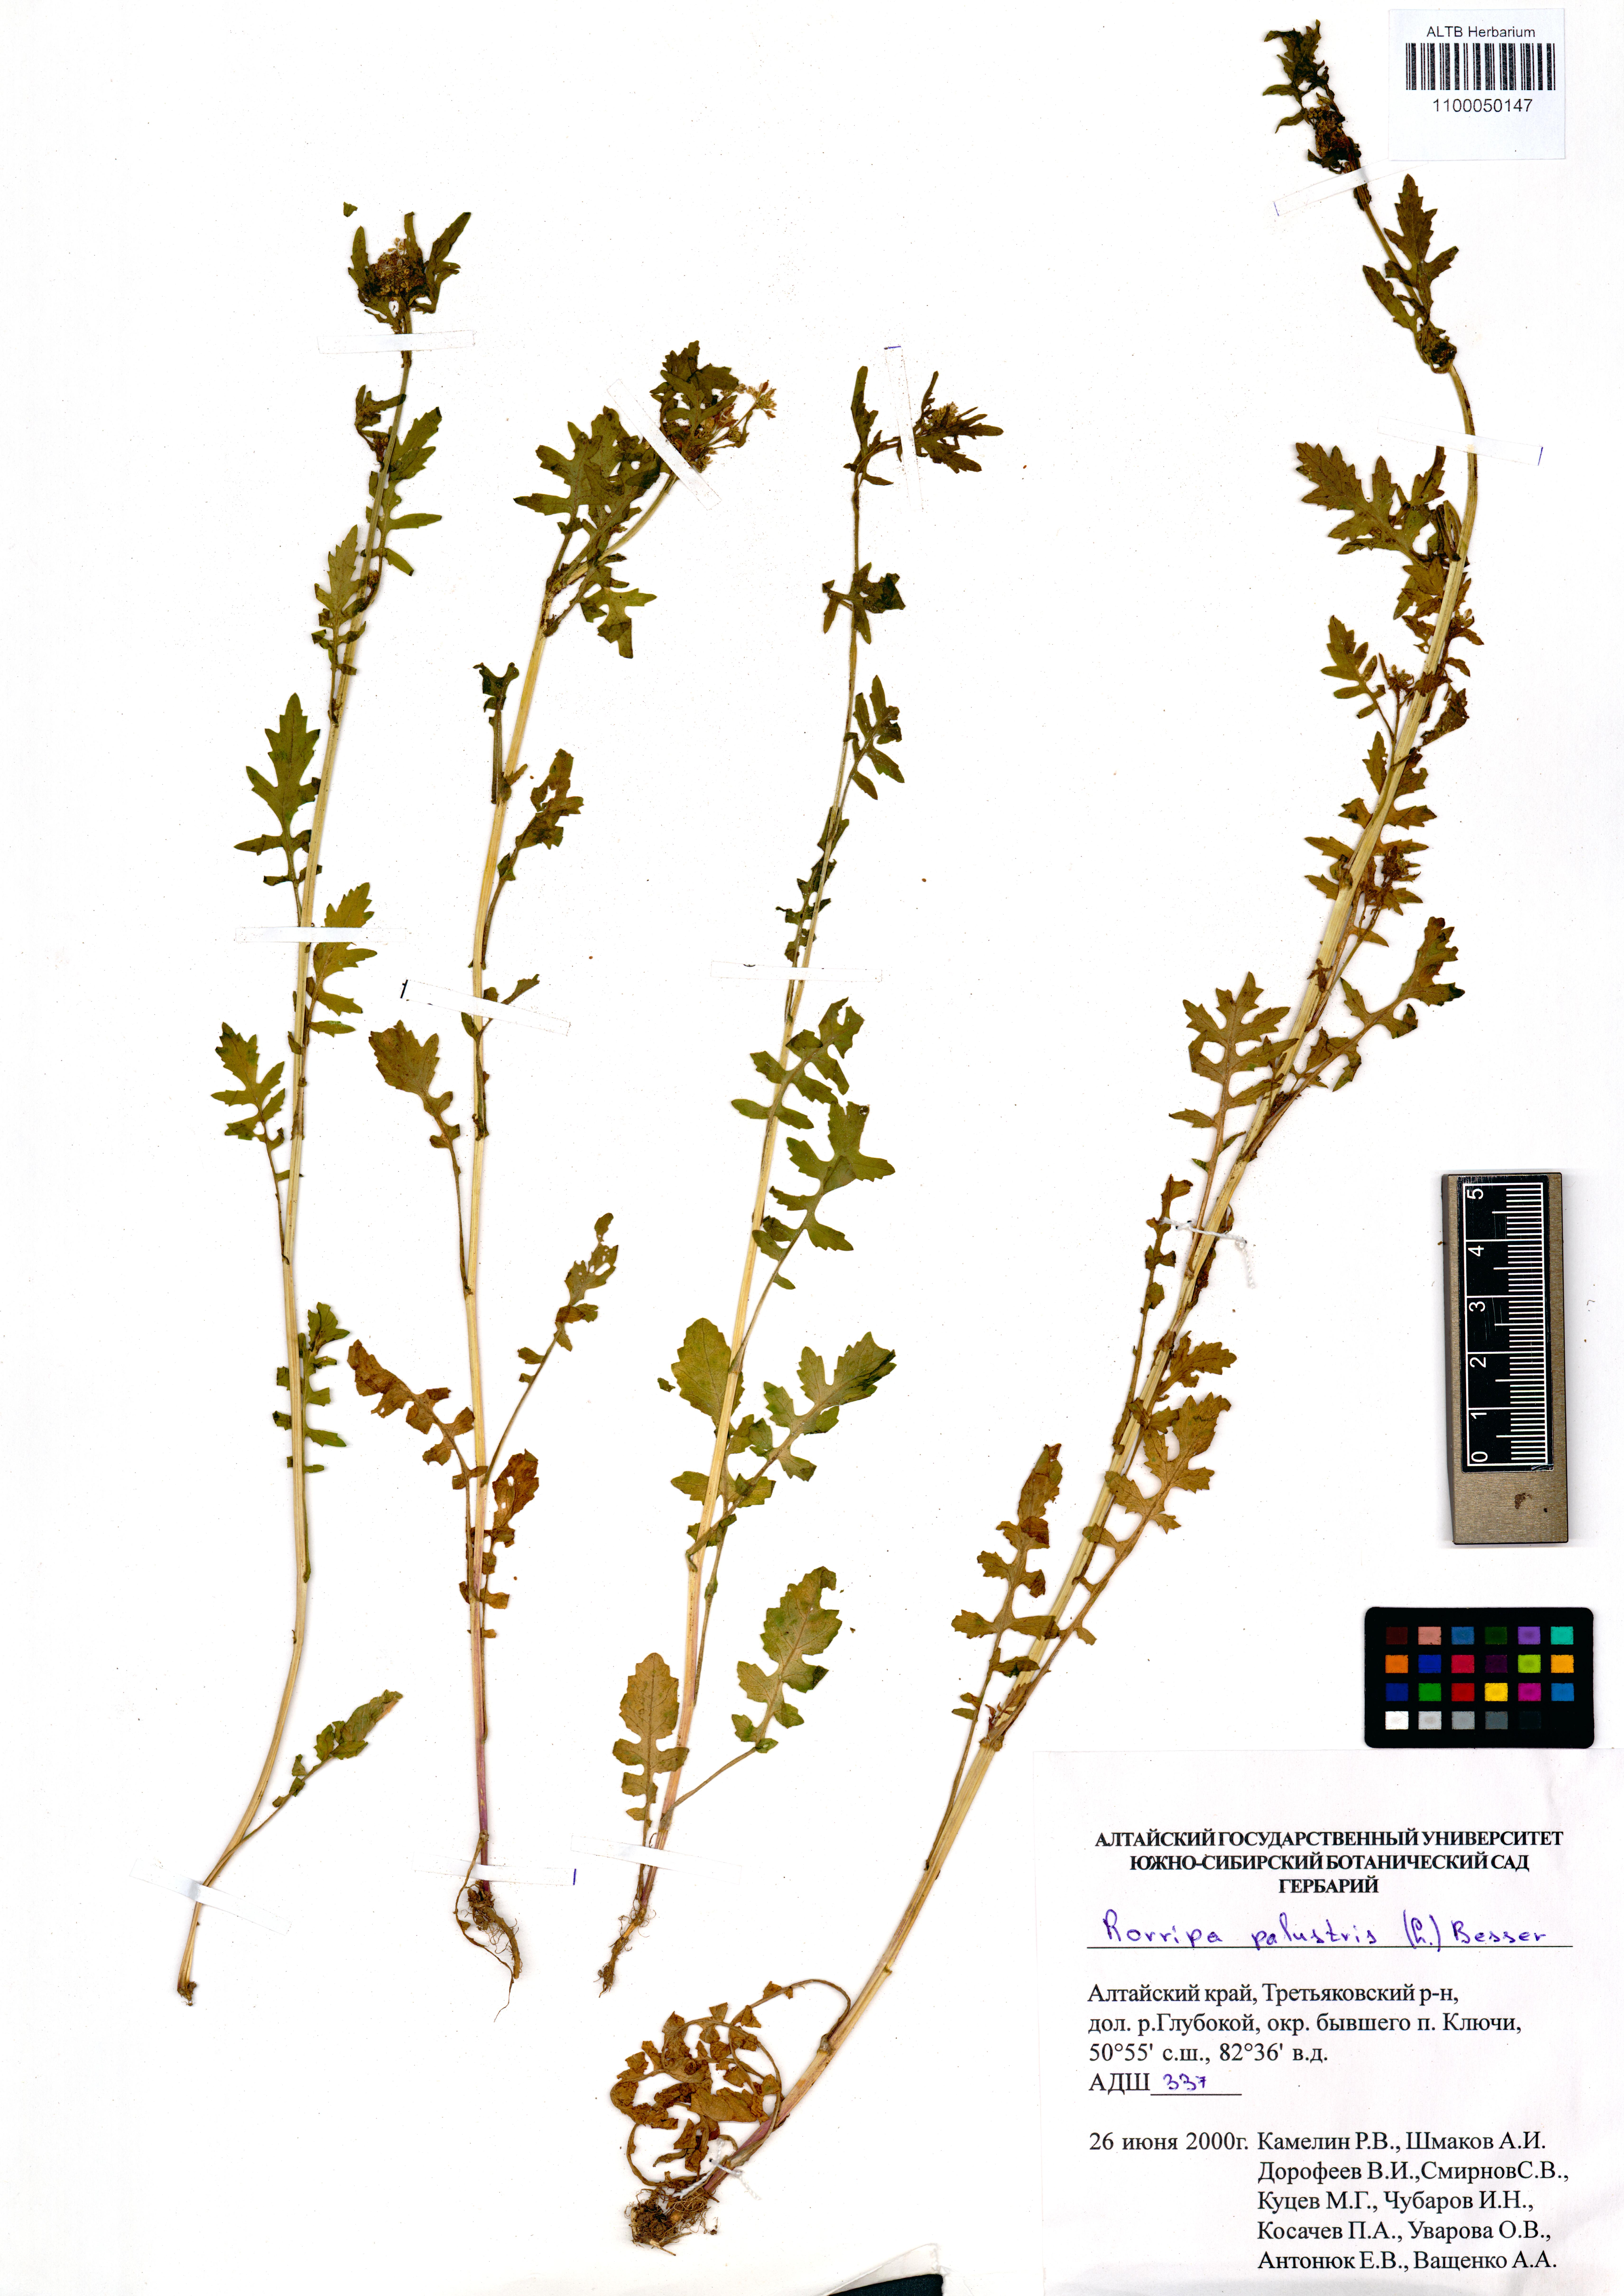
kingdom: Plantae
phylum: Tracheophyta
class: Magnoliopsida
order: Brassicales
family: Brassicaceae
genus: Rorippa
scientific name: Rorippa palustris
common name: Marsh yellow-cress
